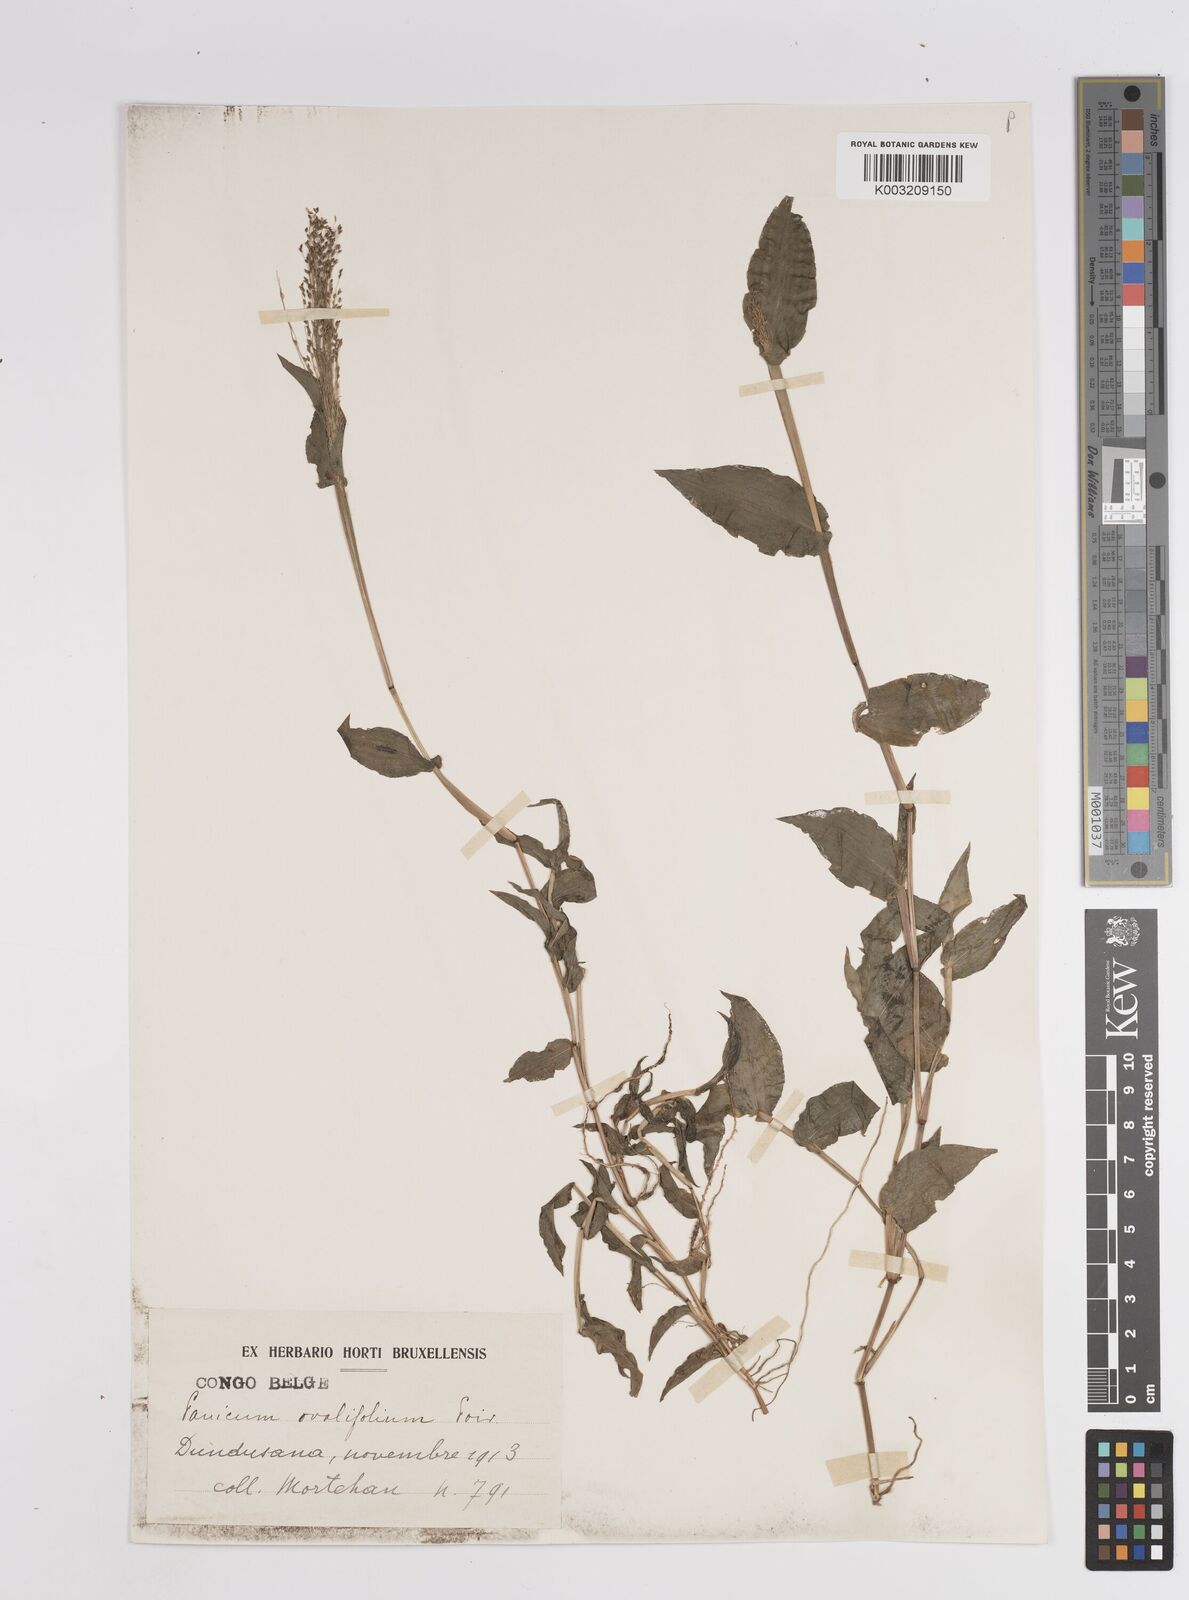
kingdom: Plantae
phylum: Tracheophyta
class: Liliopsida
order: Poales
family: Poaceae
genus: Panicum
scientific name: Panicum brevifolium
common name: Shortleaf panic grass
